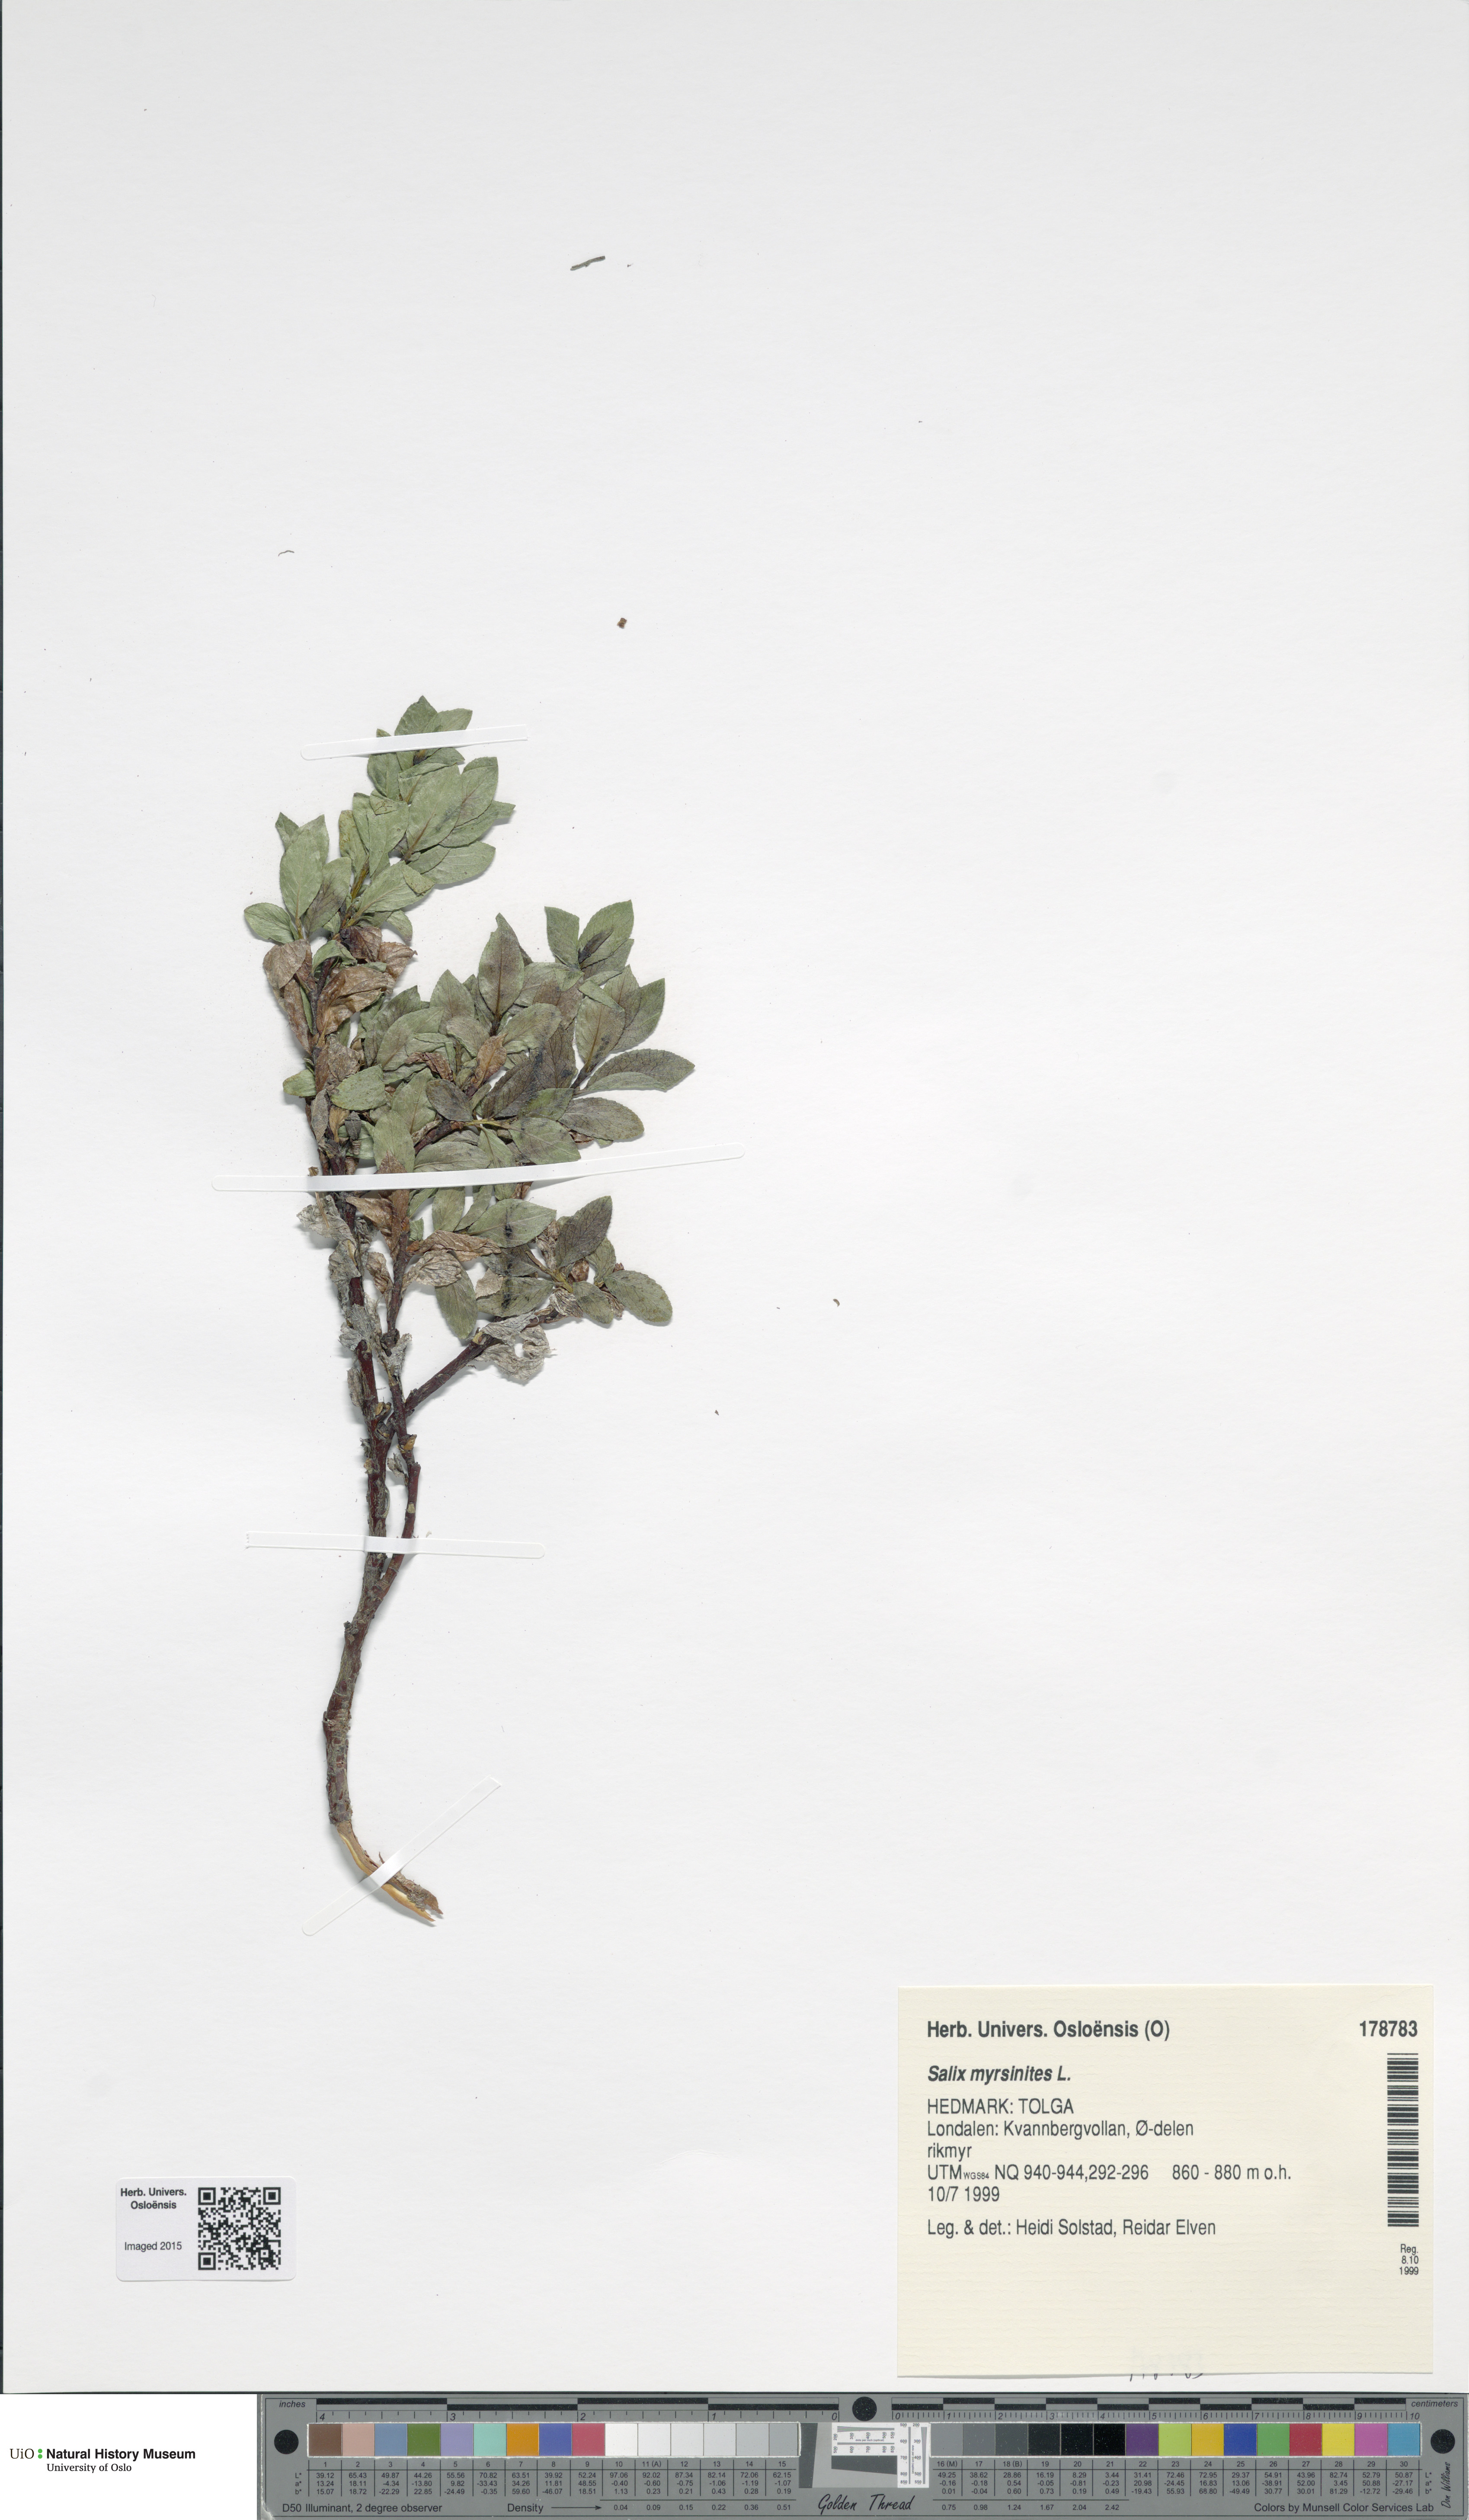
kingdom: Plantae
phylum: Tracheophyta
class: Magnoliopsida
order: Malpighiales
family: Salicaceae
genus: Salix
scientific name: Salix myrsinites
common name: Myrtle willow
